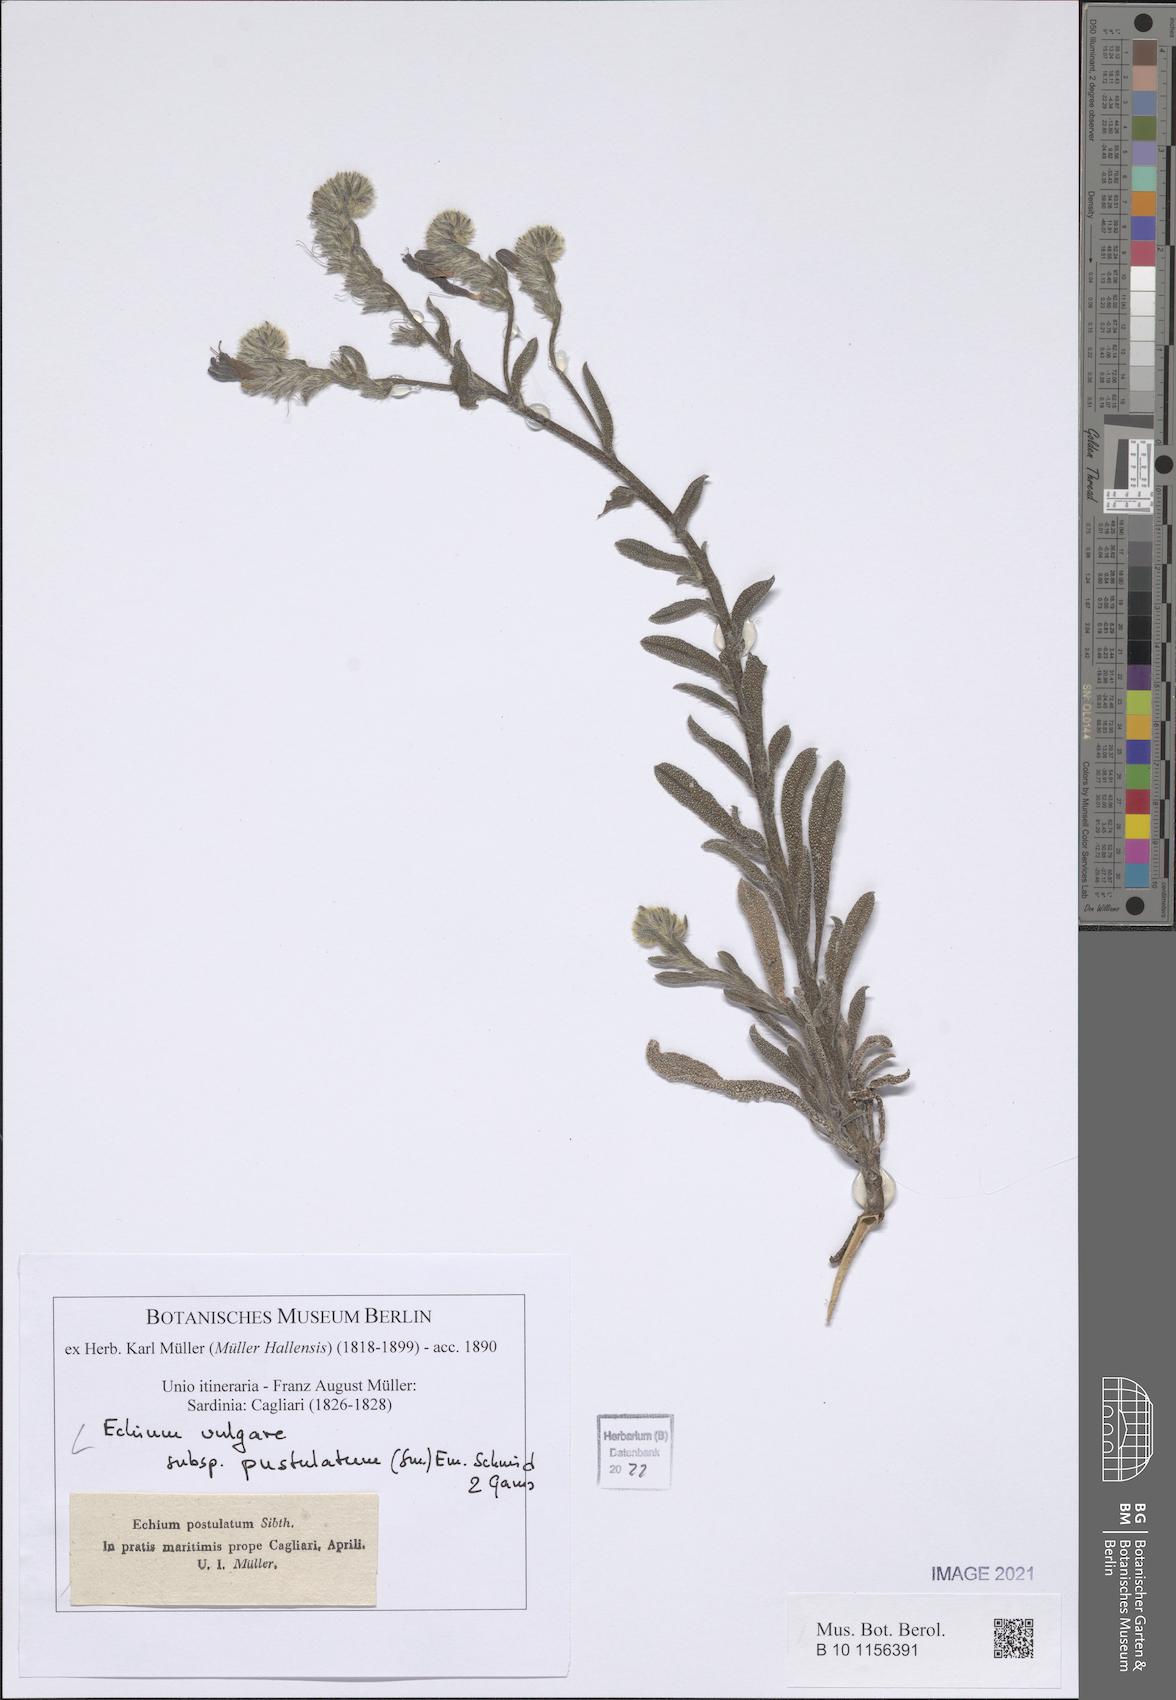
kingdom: Plantae
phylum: Tracheophyta
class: Magnoliopsida
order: Boraginales
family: Boraginaceae
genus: Echium
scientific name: Echium vulgare
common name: Common viper's bugloss
